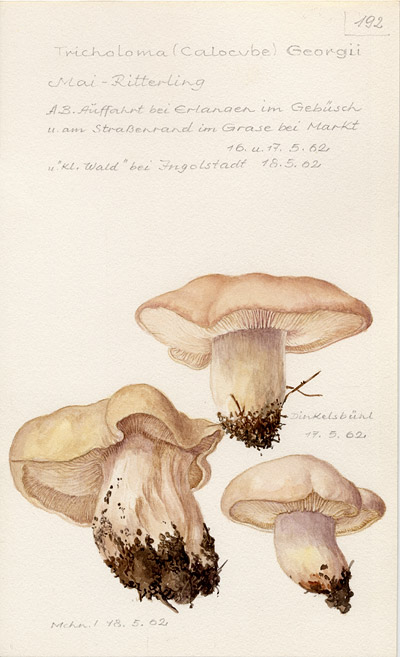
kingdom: Fungi
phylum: Basidiomycota
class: Agaricomycetes
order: Agaricales
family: Lyophyllaceae
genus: Calocybe
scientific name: Calocybe gambosa
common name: St. george's mushroom
